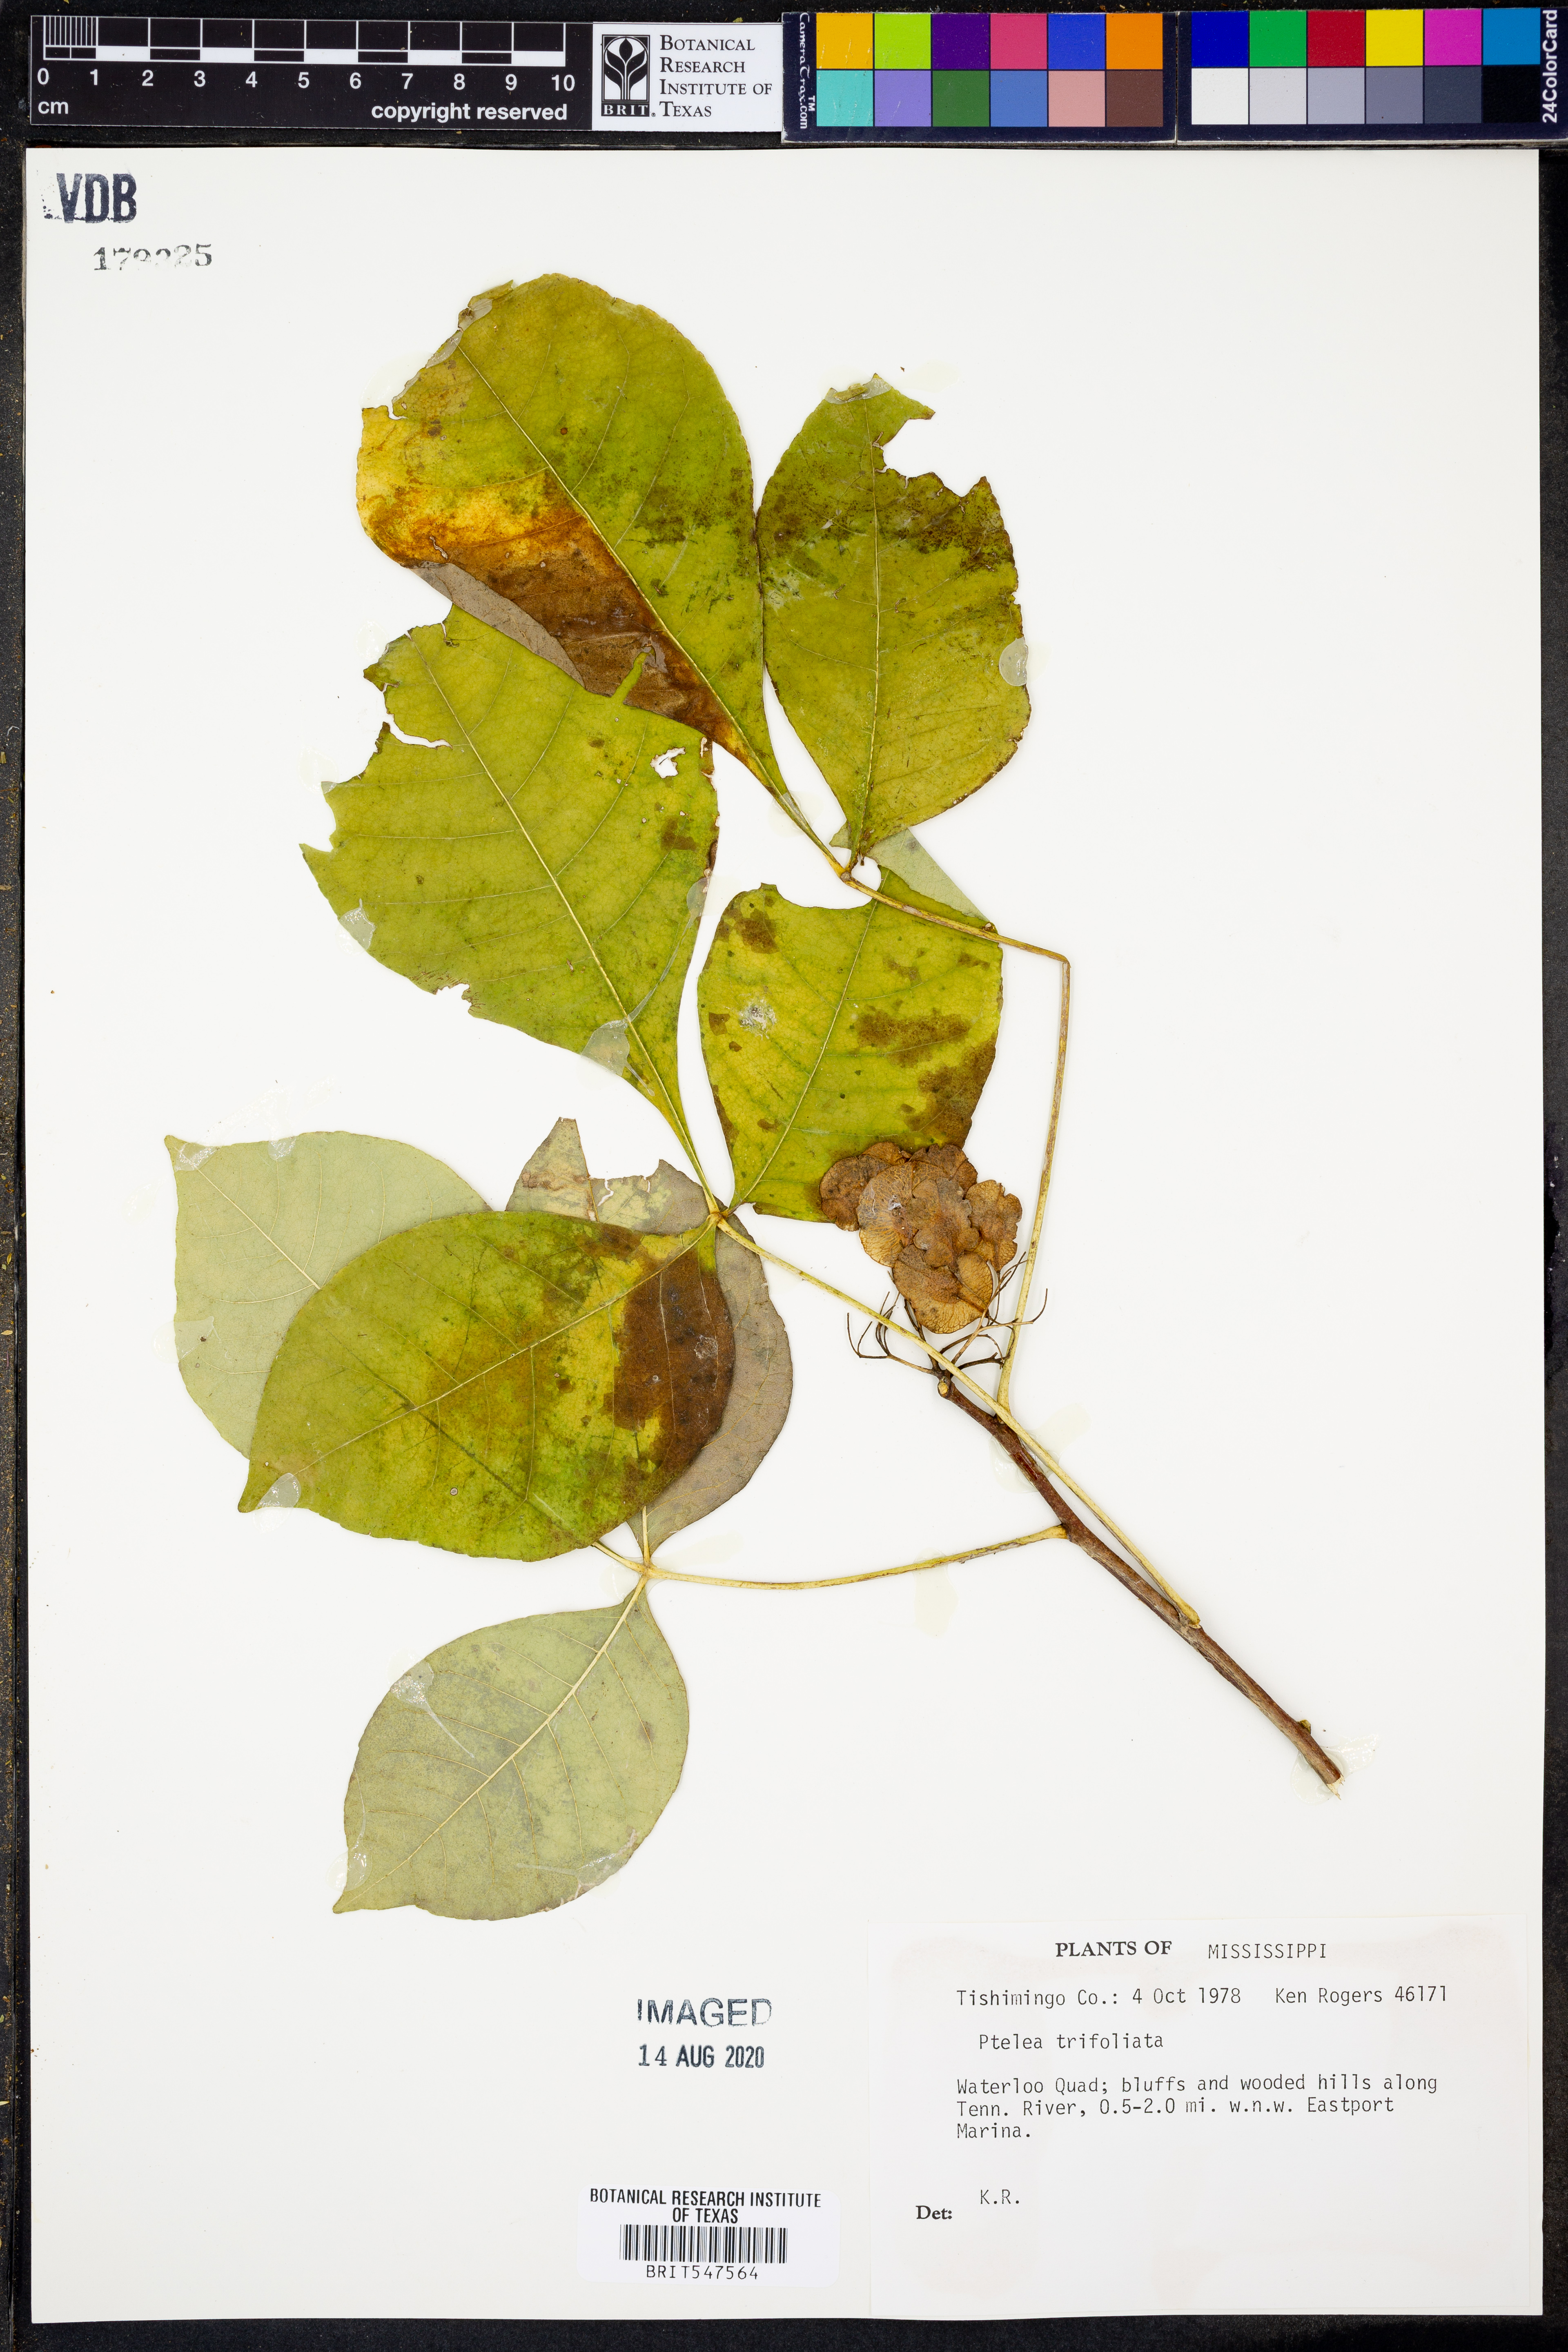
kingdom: Plantae
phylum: Tracheophyta
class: Magnoliopsida
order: Sapindales
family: Rutaceae
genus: Ptelea
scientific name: Ptelea trifoliata
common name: Common hop-tree
